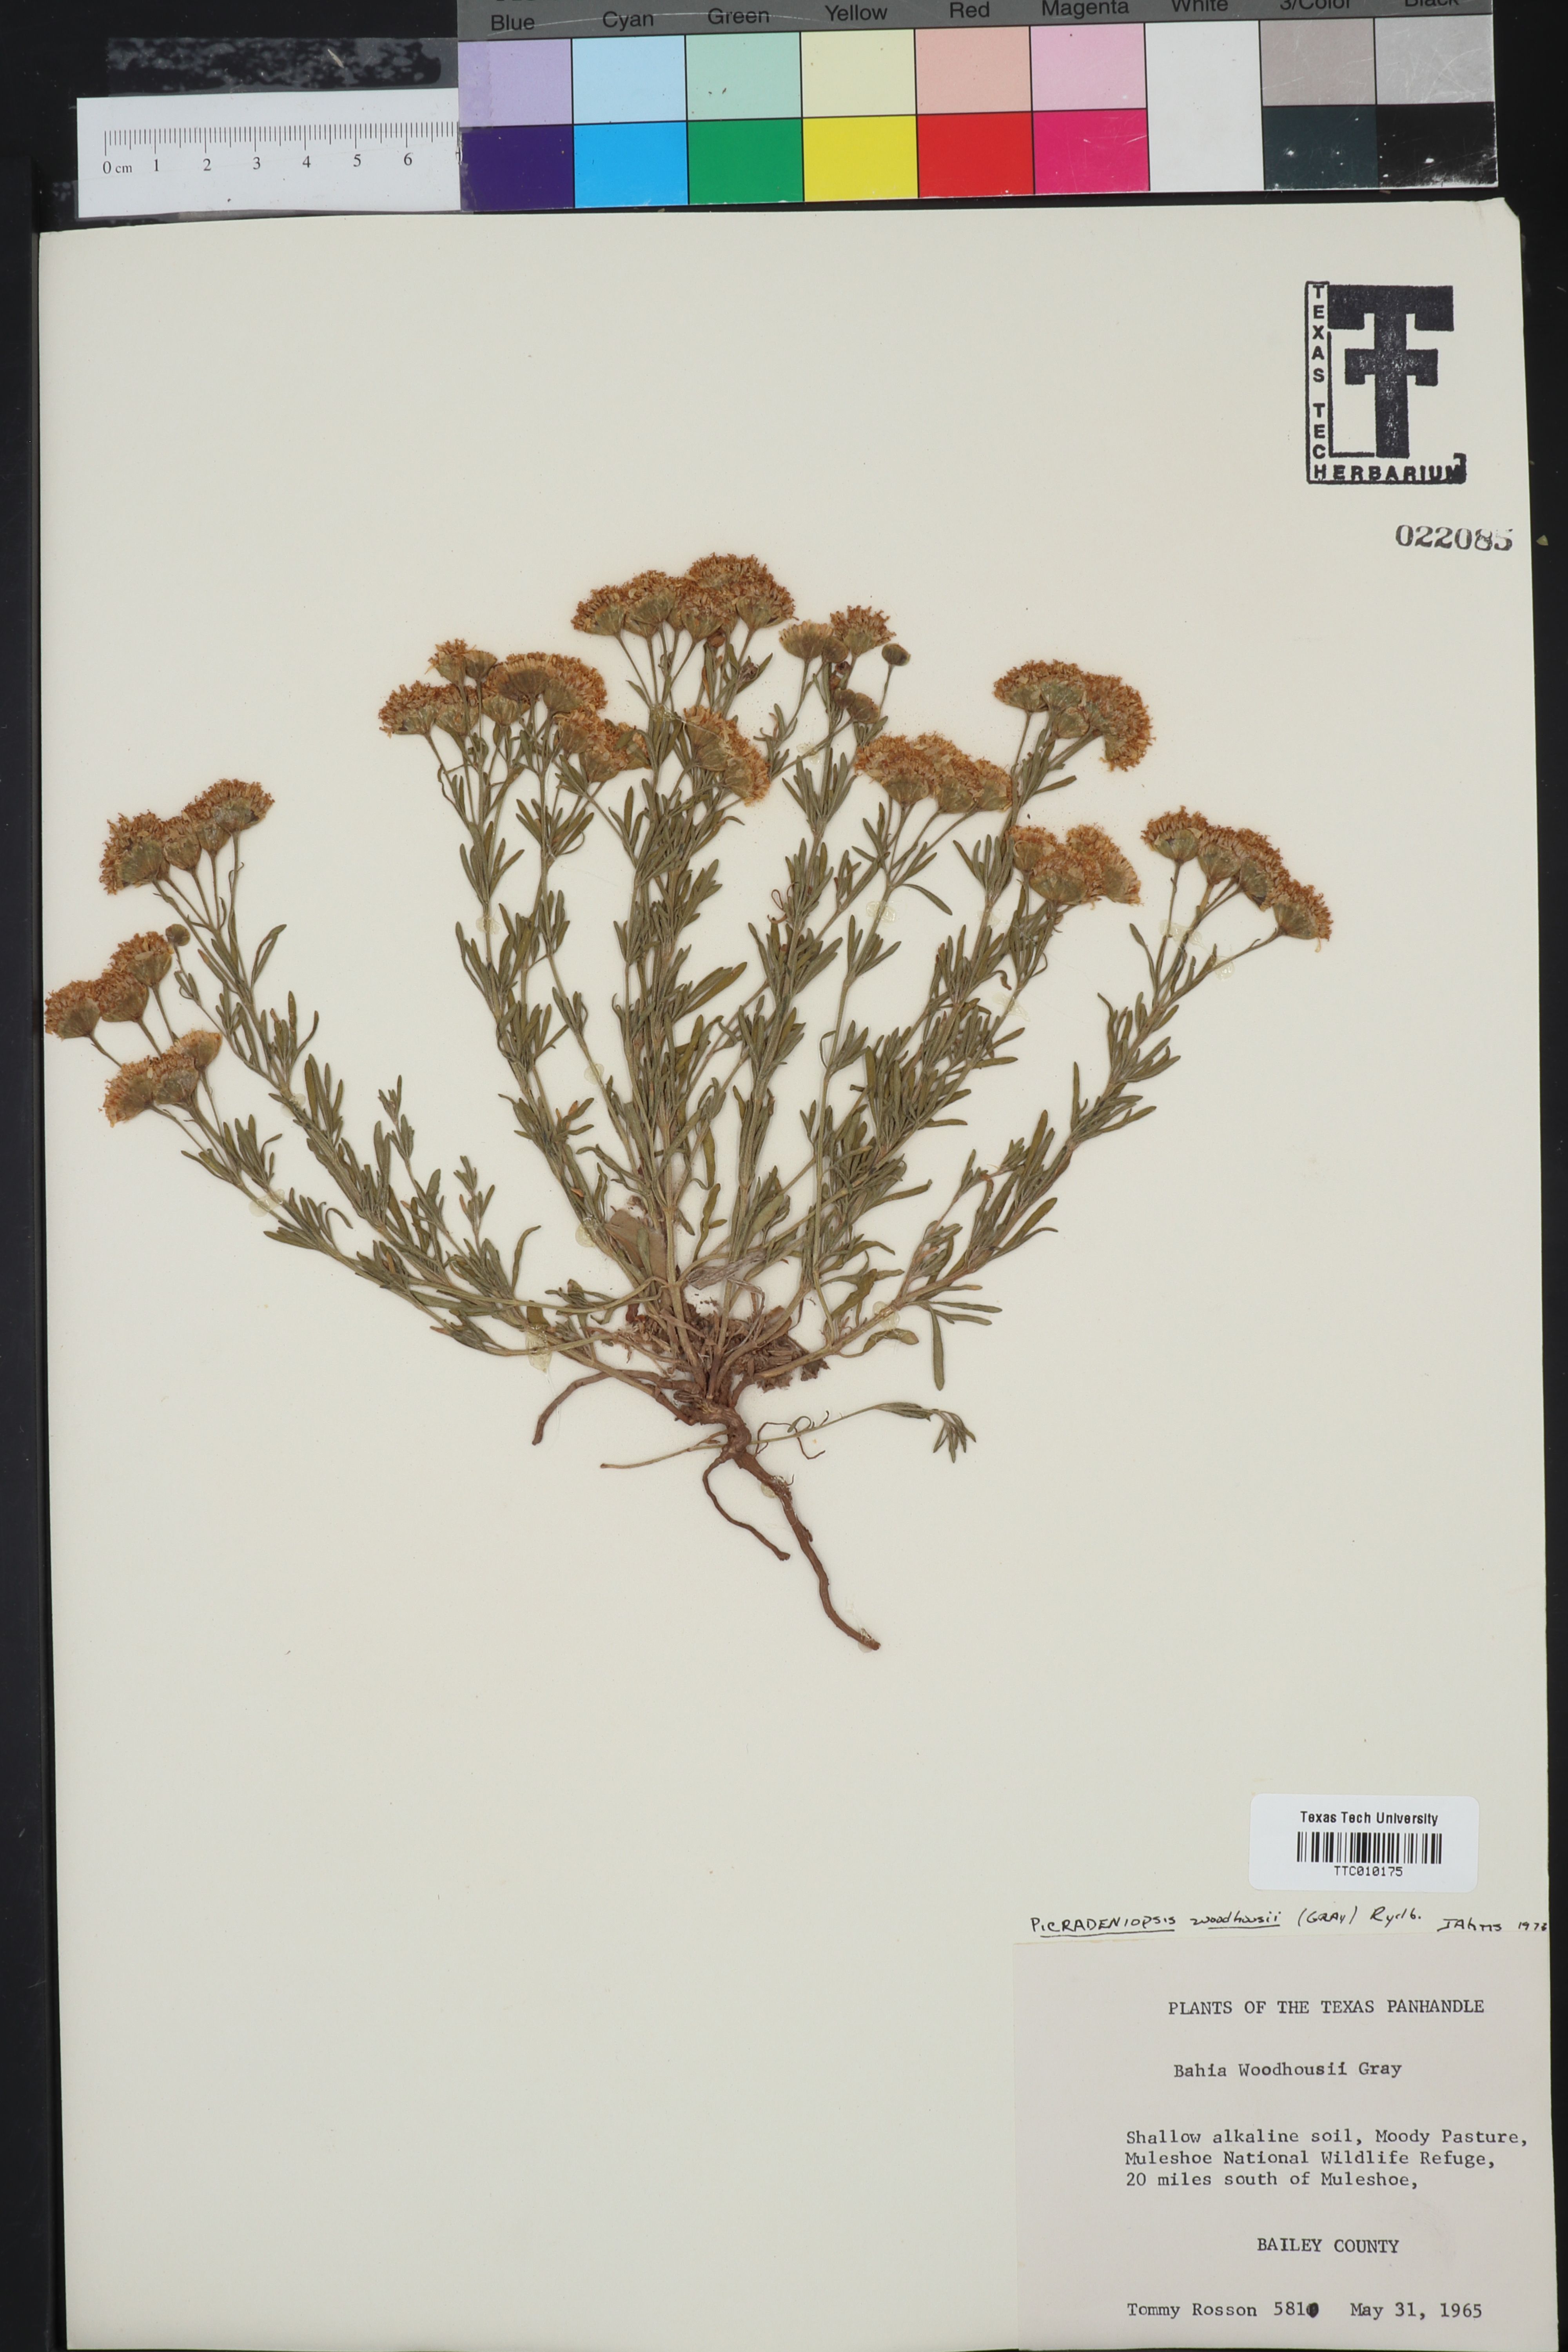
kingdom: Plantae
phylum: Tracheophyta
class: Magnoliopsida
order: Asterales
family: Asteraceae
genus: Picradeniopsis
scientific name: Picradeniopsis woodhousei
